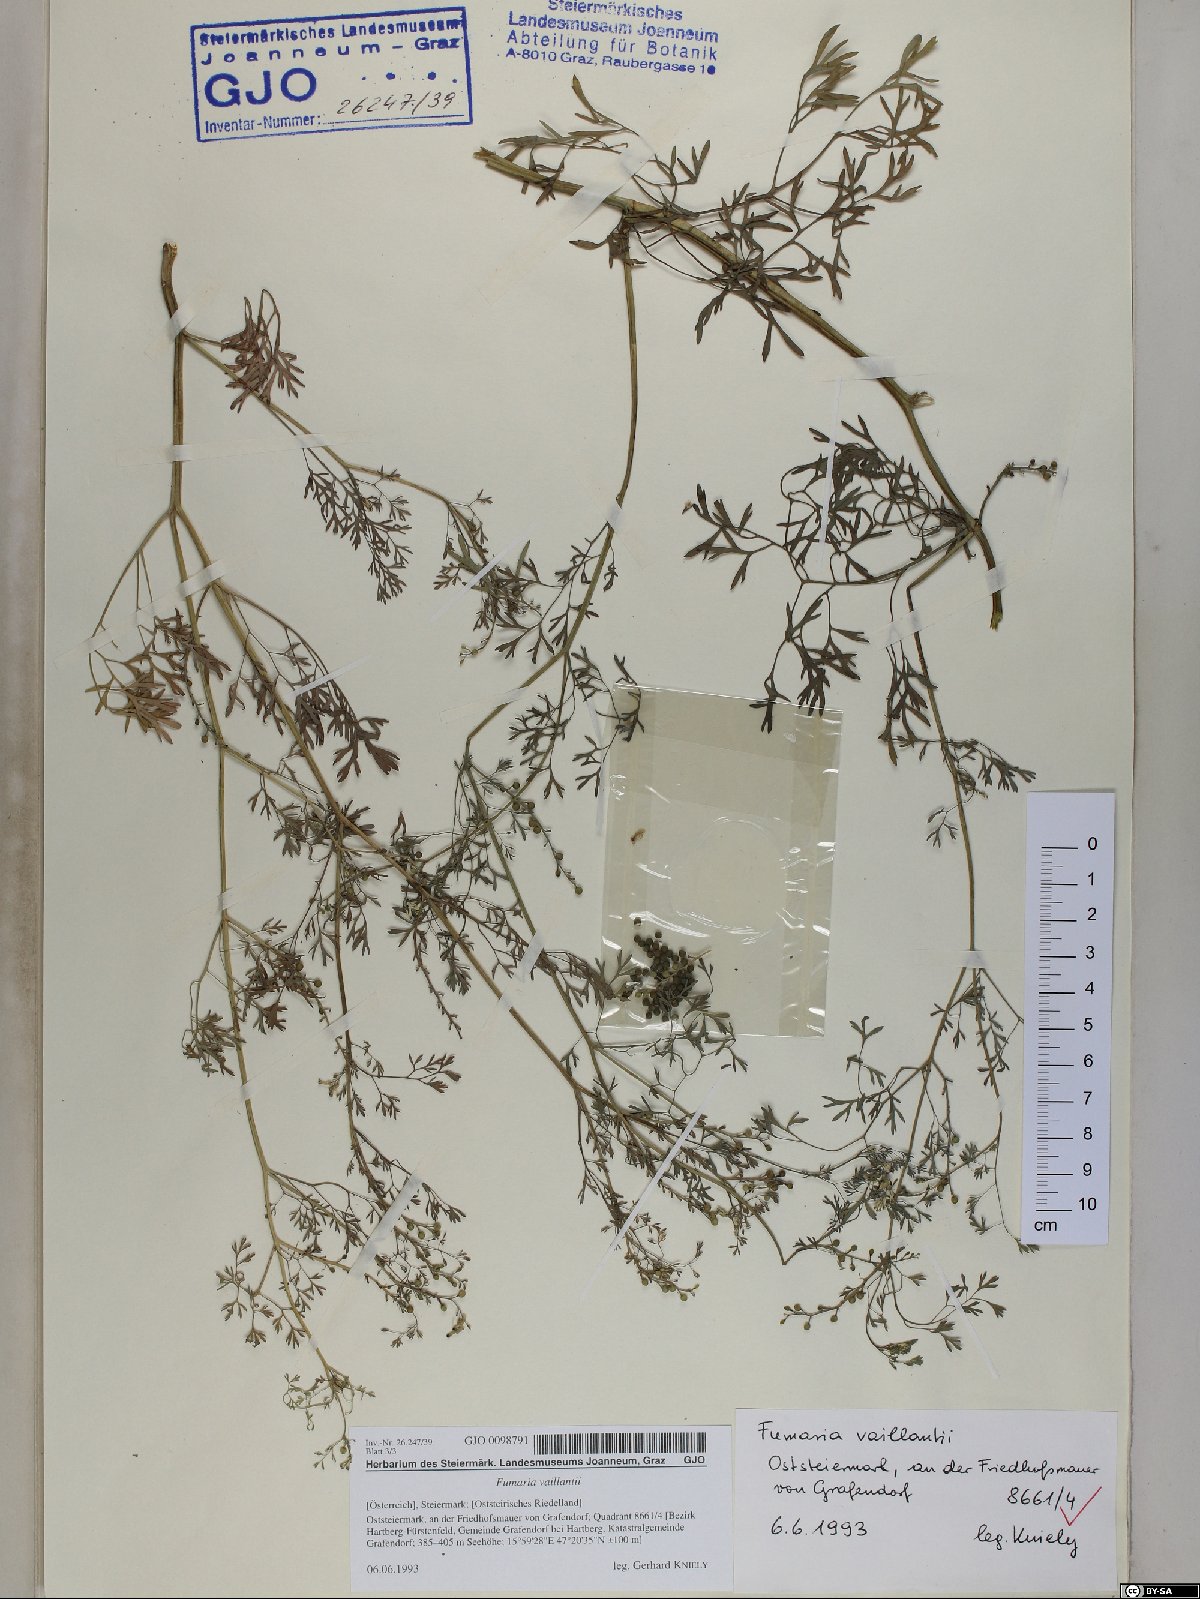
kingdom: Plantae
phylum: Tracheophyta
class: Magnoliopsida
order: Ranunculales
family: Papaveraceae
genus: Fumaria
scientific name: Fumaria vaillantii
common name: Few-flowered fumitory
